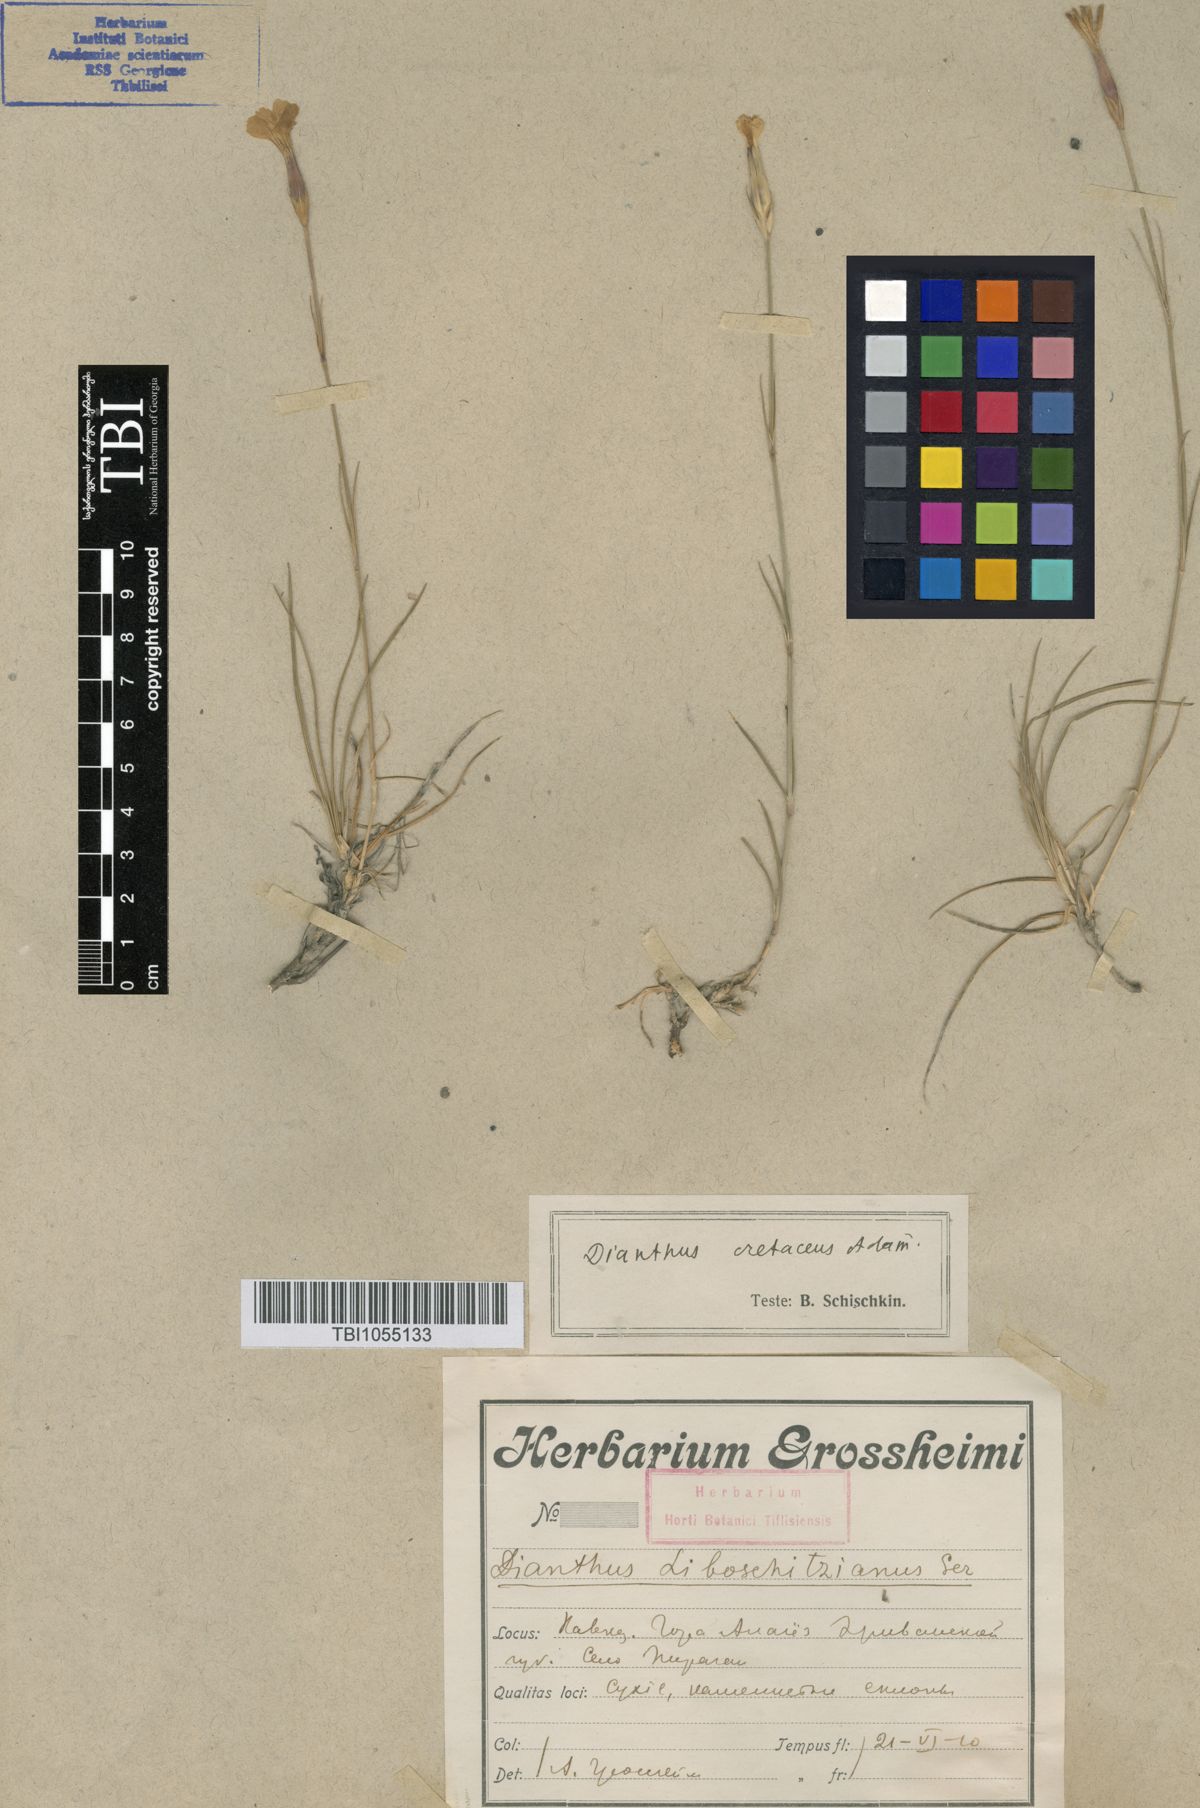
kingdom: Plantae
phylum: Tracheophyta
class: Magnoliopsida
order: Caryophyllales
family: Caryophyllaceae
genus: Dianthus
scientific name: Dianthus cretaceus
